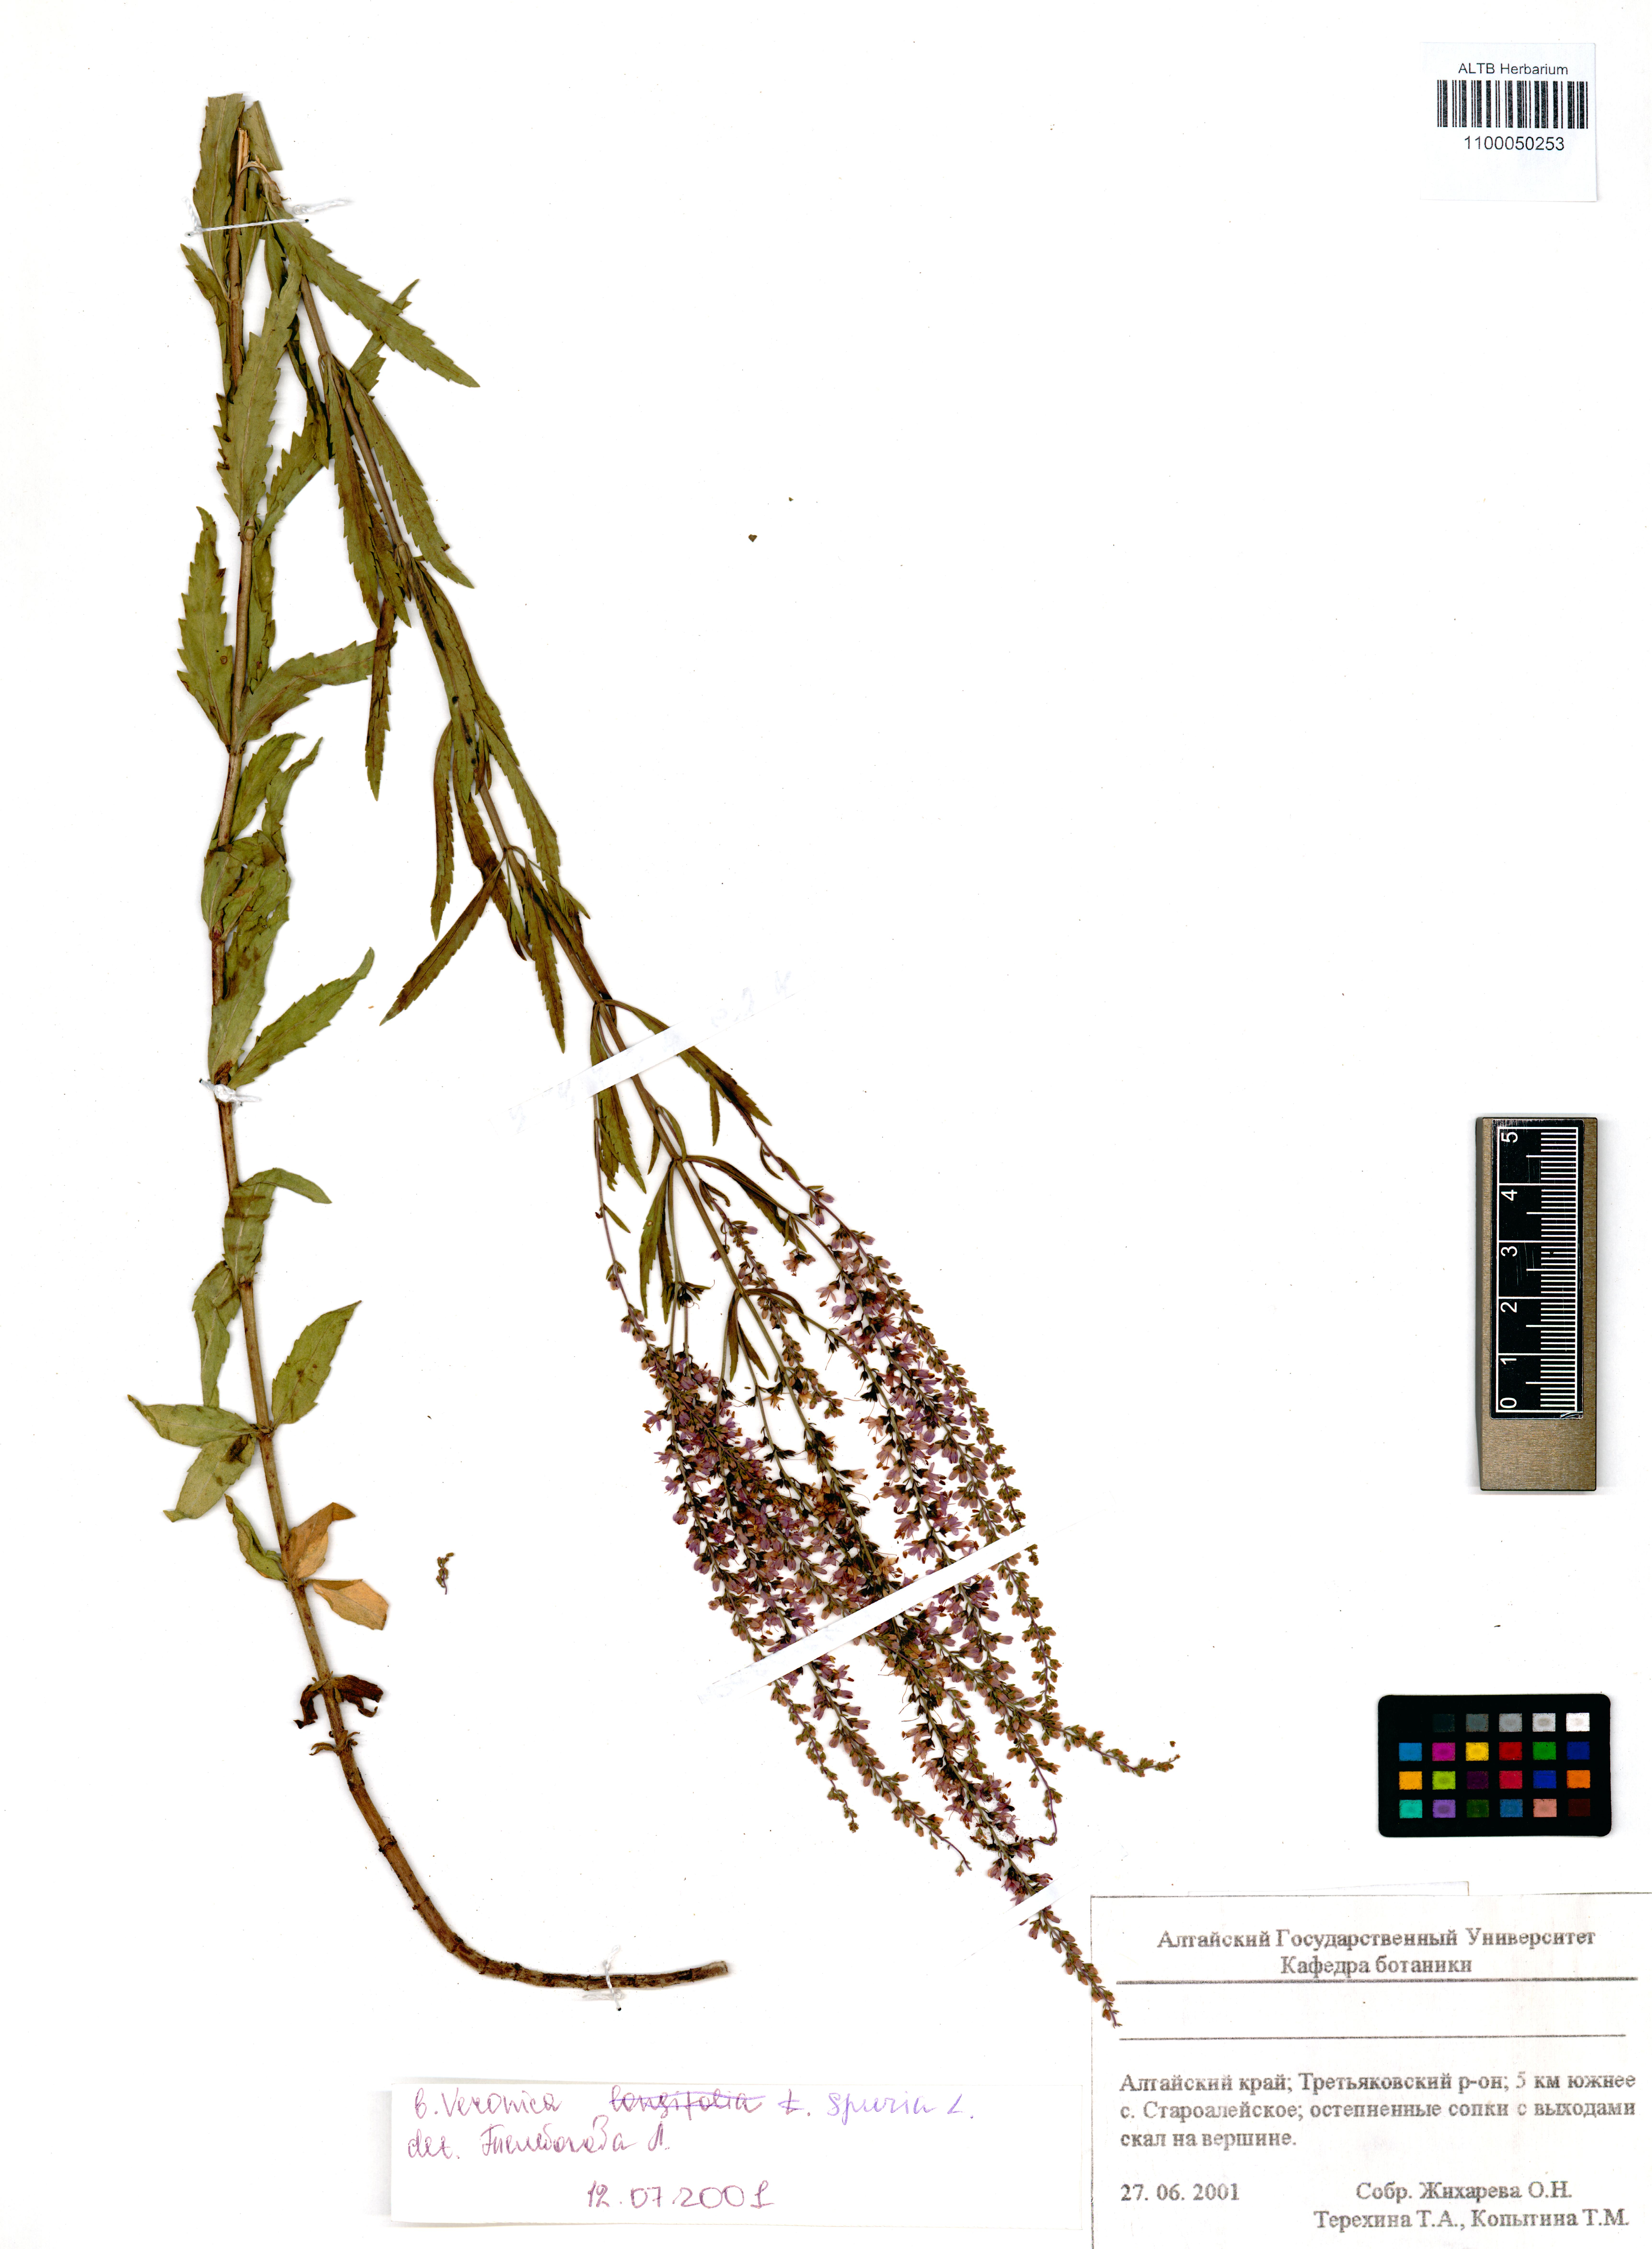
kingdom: Plantae
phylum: Tracheophyta
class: Magnoliopsida
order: Lamiales
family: Plantaginaceae
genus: Veronica
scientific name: Veronica spuria
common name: Bastard speedwell
